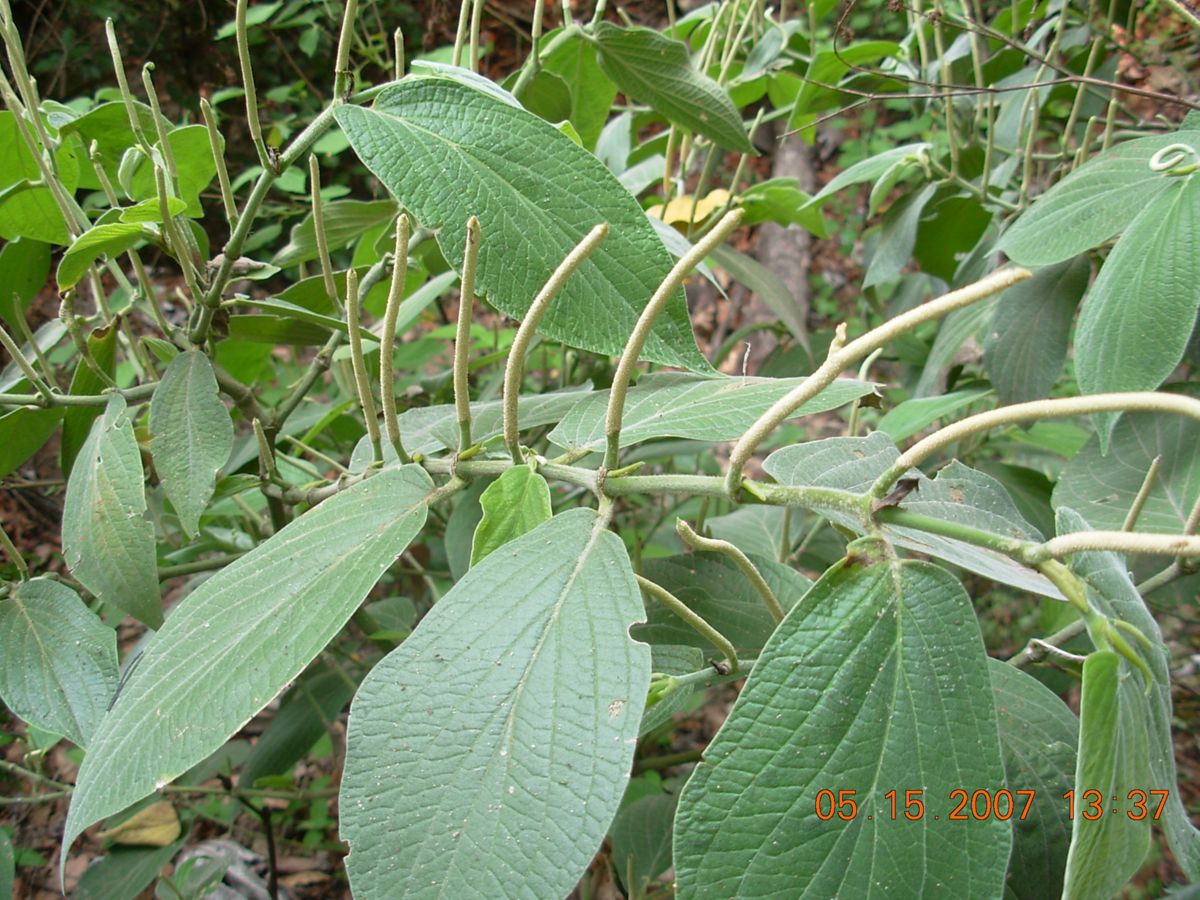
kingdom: Plantae
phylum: Tracheophyta
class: Magnoliopsida
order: Piperales
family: Piperaceae
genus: Piper
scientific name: Piper pseudofuligineum
